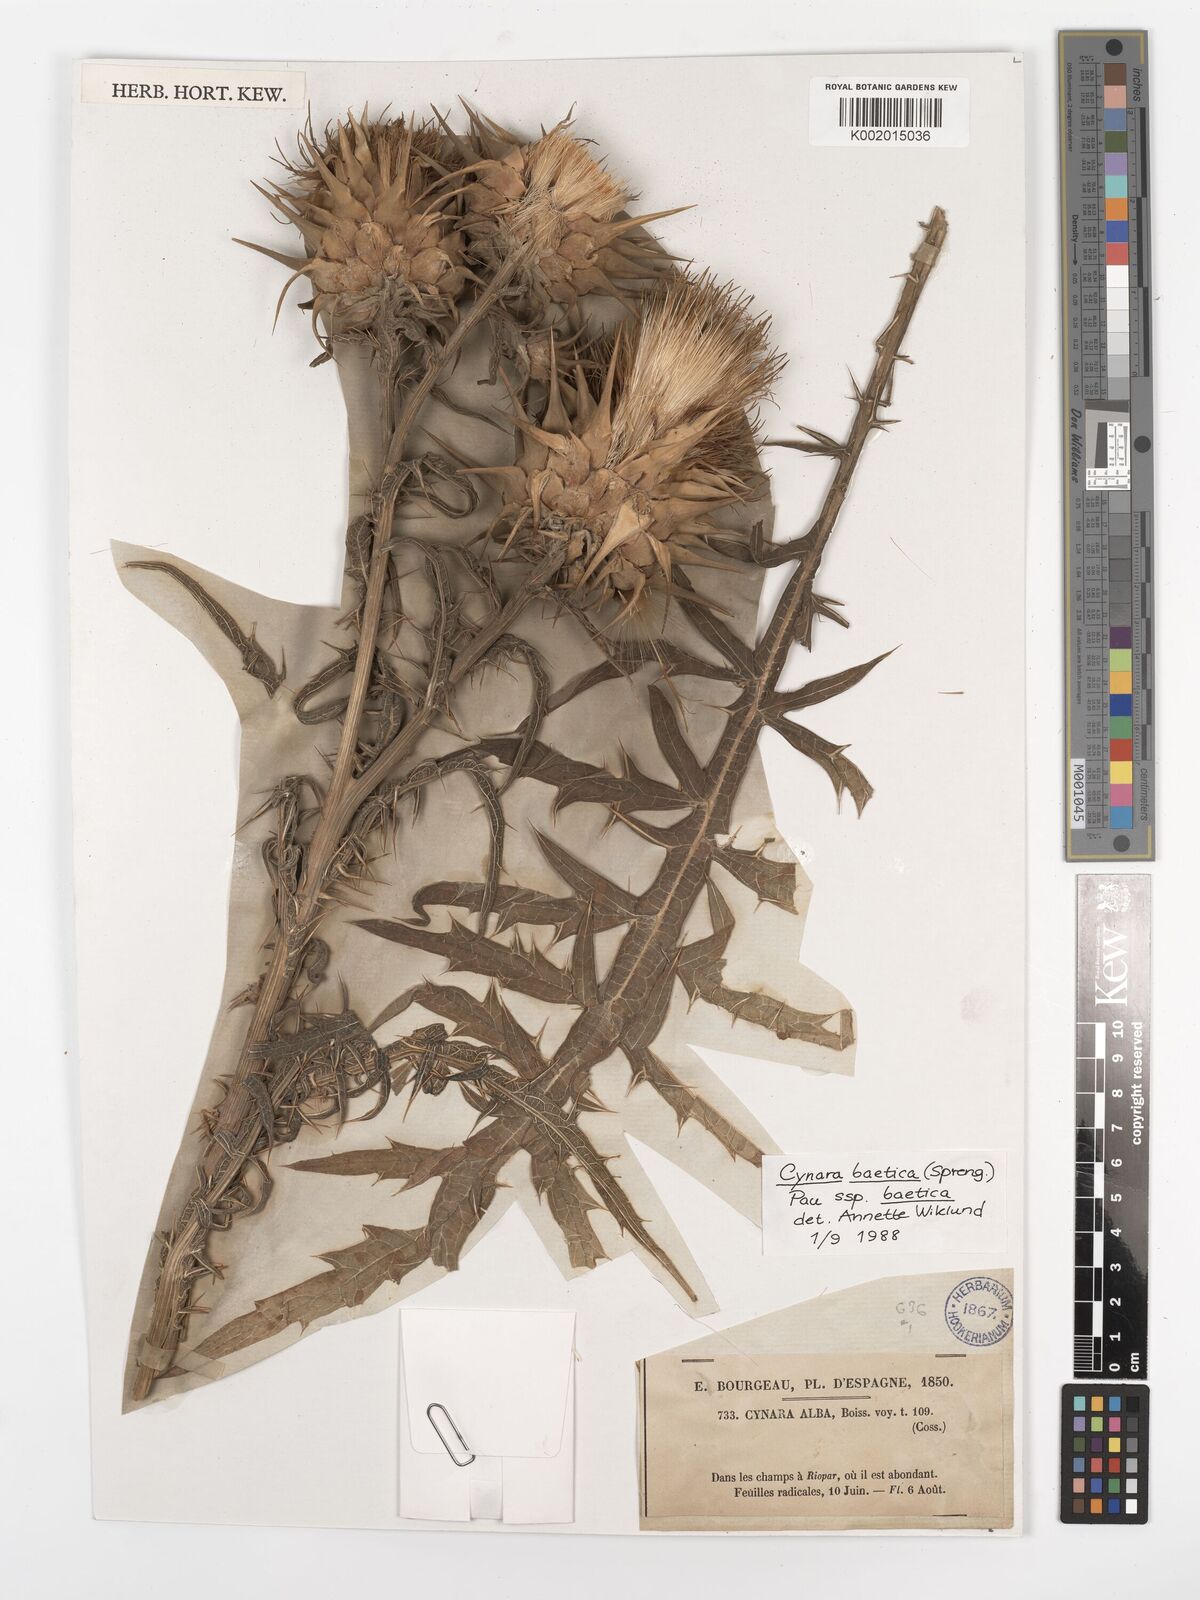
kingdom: Plantae
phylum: Tracheophyta
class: Magnoliopsida
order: Asterales
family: Asteraceae
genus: Cynara
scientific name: Cynara baetica
